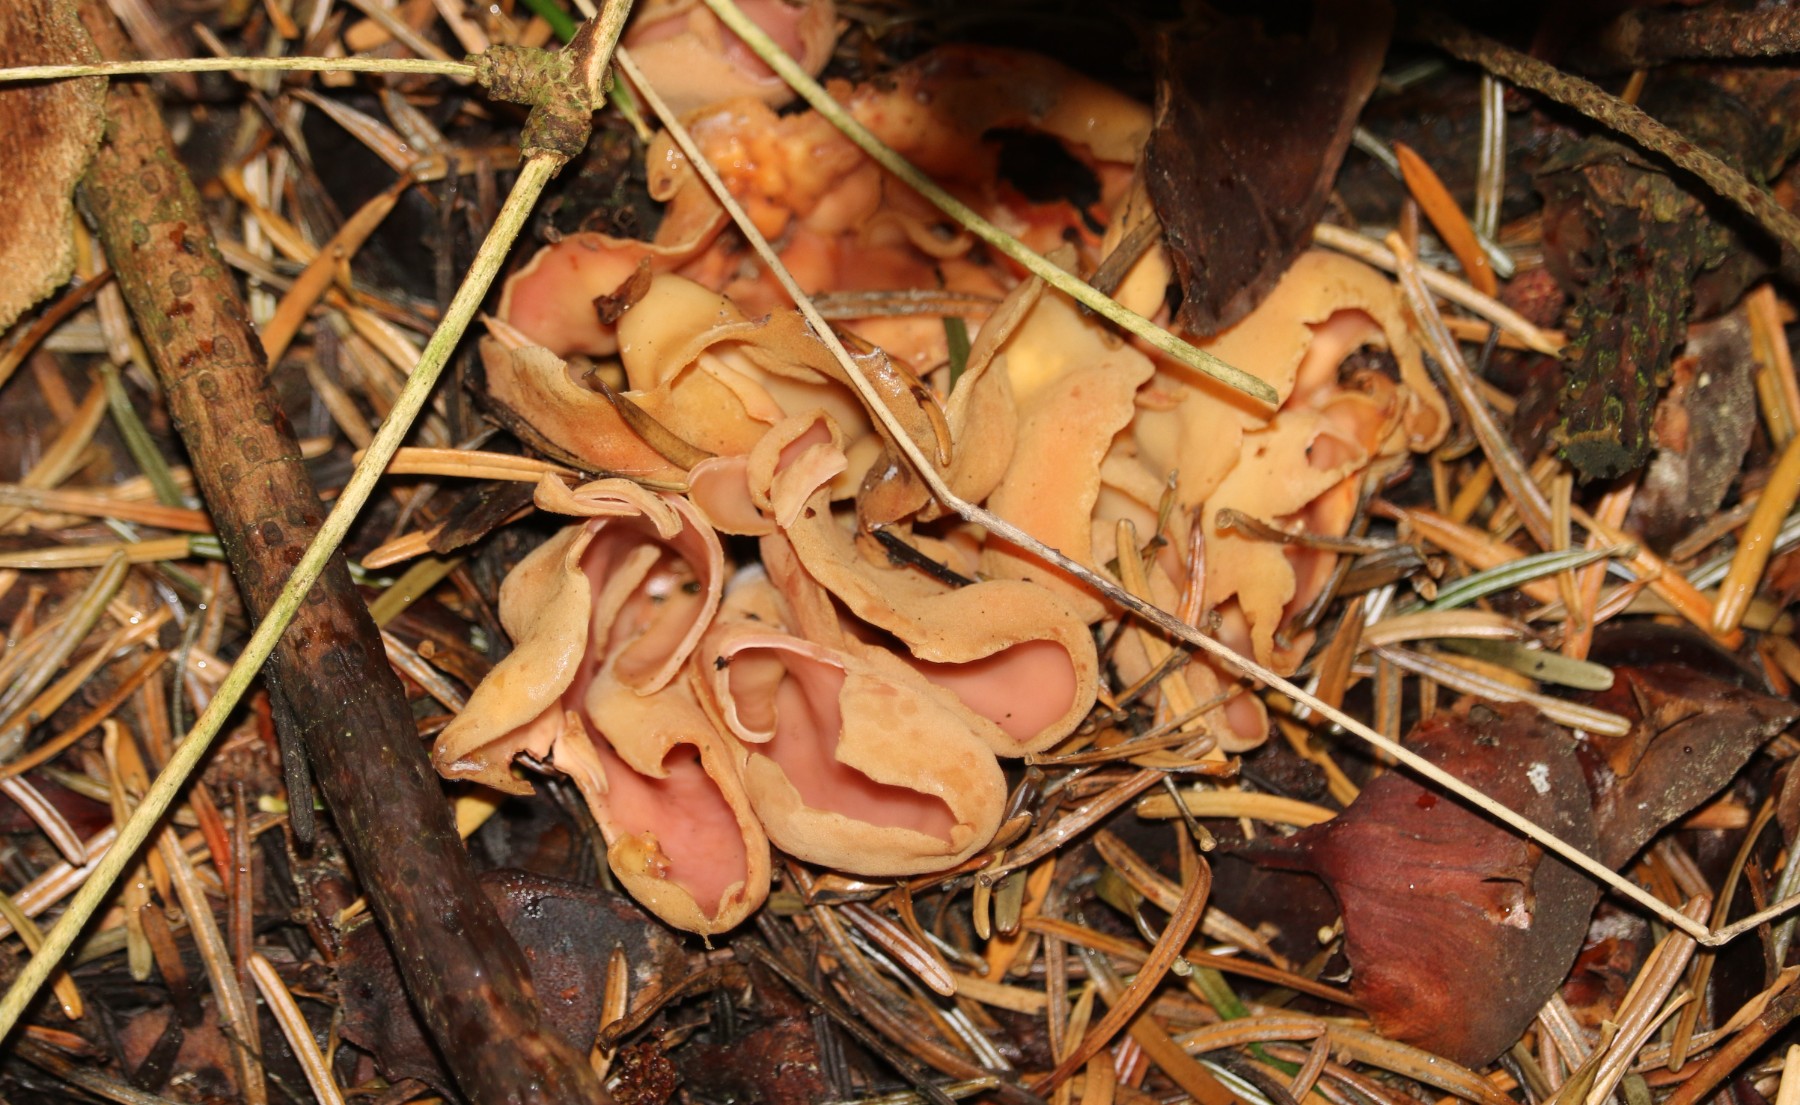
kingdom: Fungi
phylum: Ascomycota
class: Pezizomycetes
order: Pezizales
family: Otideaceae
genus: Otidea
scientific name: Otidea onotica
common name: æsel-ørebæger
